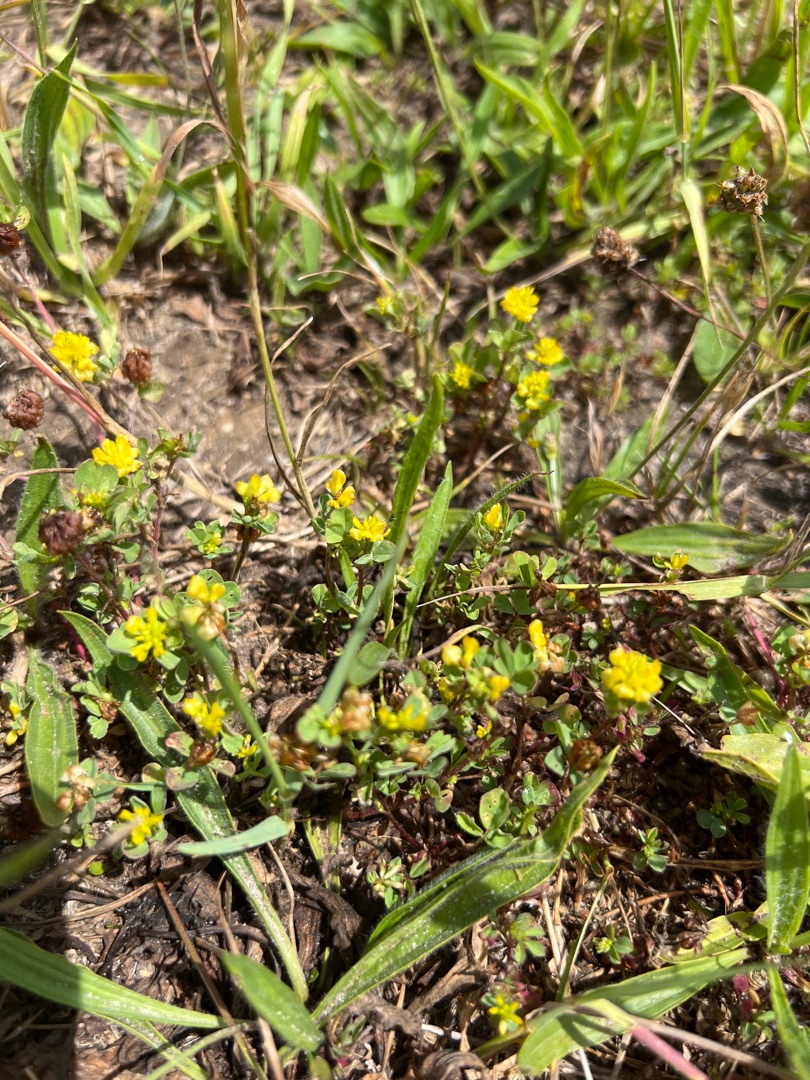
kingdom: Plantae
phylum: Tracheophyta
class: Magnoliopsida
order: Fabales
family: Fabaceae
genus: Trifolium
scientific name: Trifolium campestre
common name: Gul kløver
